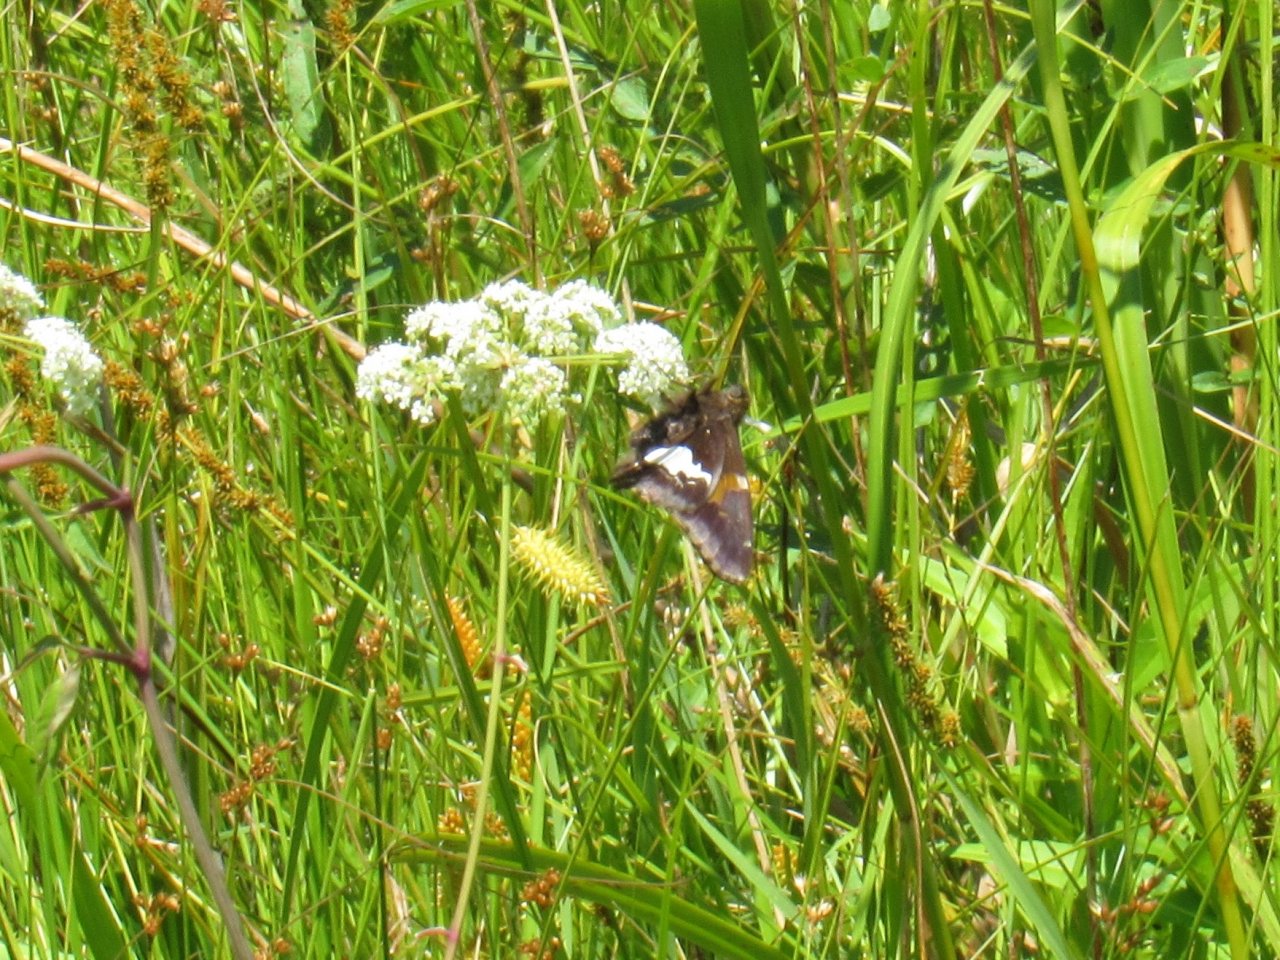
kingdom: Animalia
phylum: Arthropoda
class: Insecta
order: Lepidoptera
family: Hesperiidae
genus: Epargyreus
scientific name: Epargyreus clarus
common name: Silver-spotted Skipper
